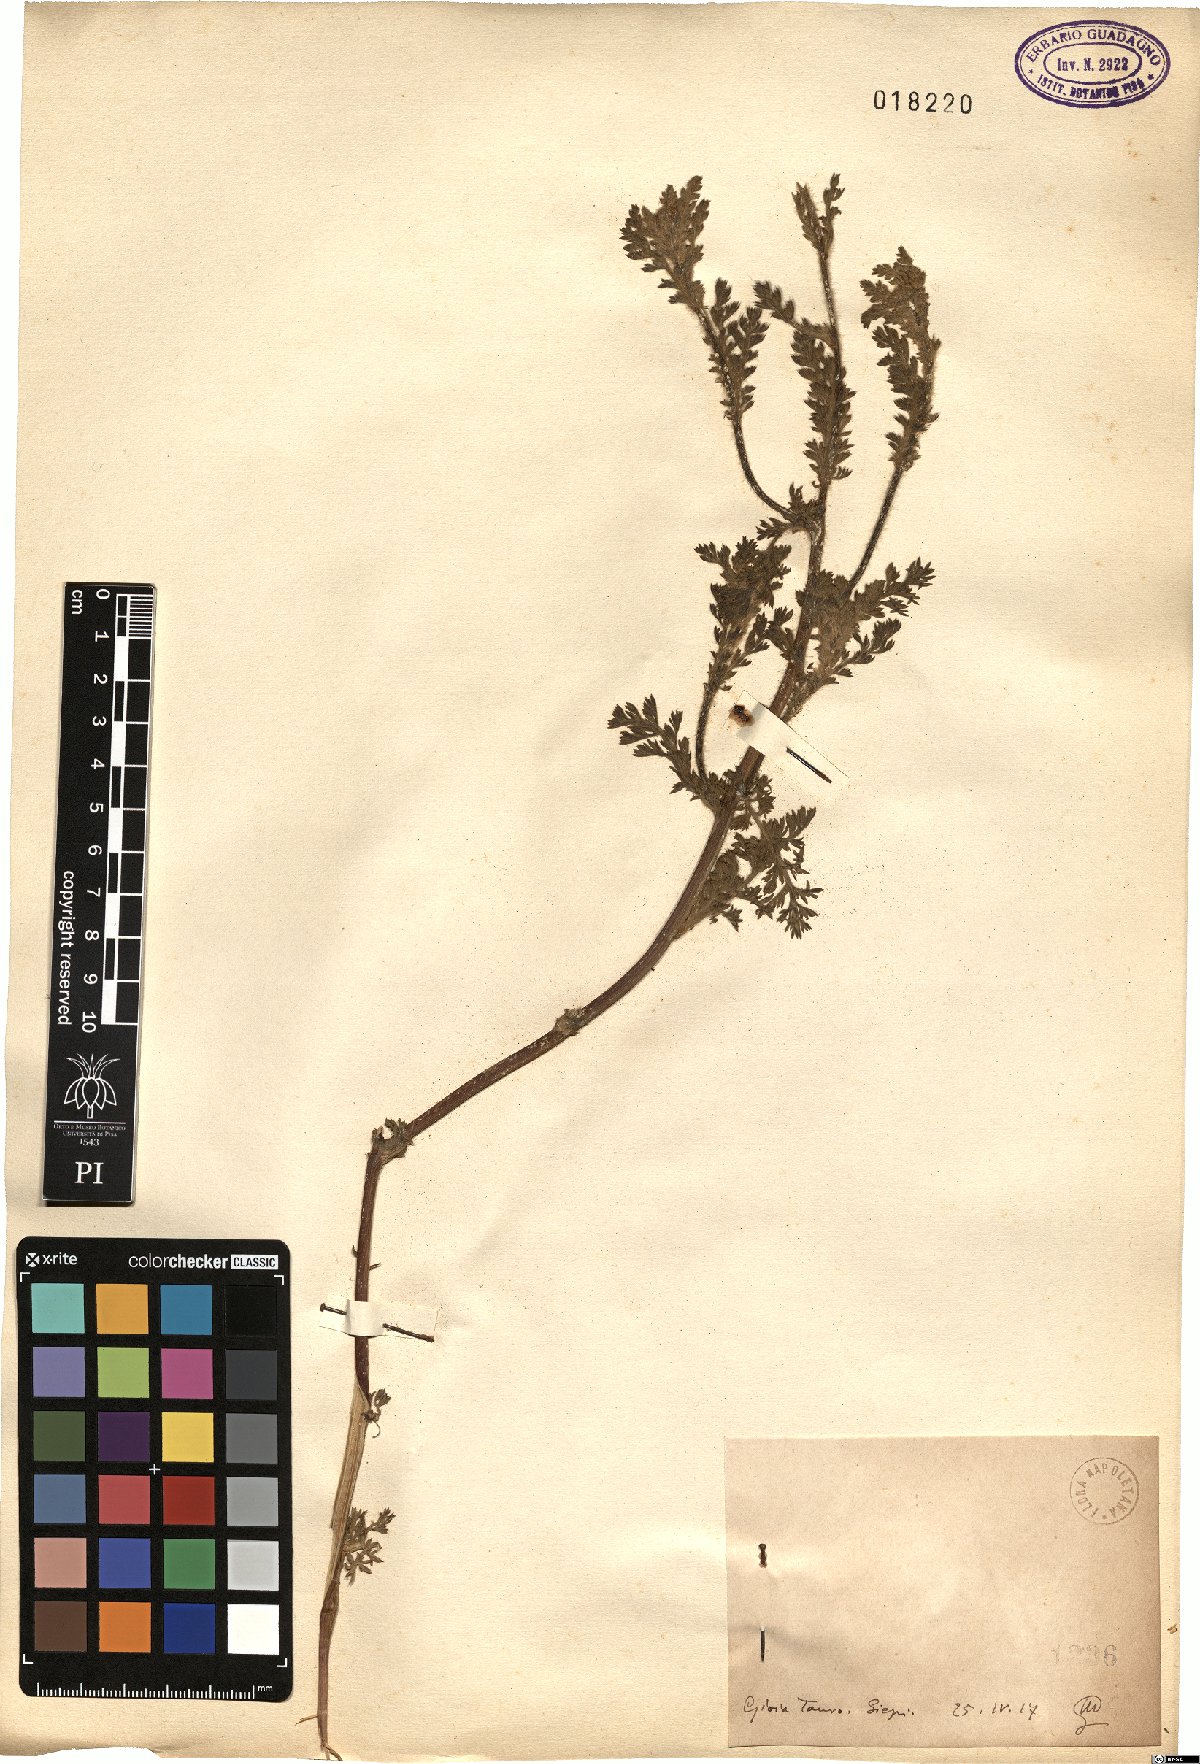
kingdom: Plantae
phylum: Tracheophyta
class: Magnoliopsida
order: Asterales
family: Asteraceae
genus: Anacyclus
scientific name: Anacyclus
